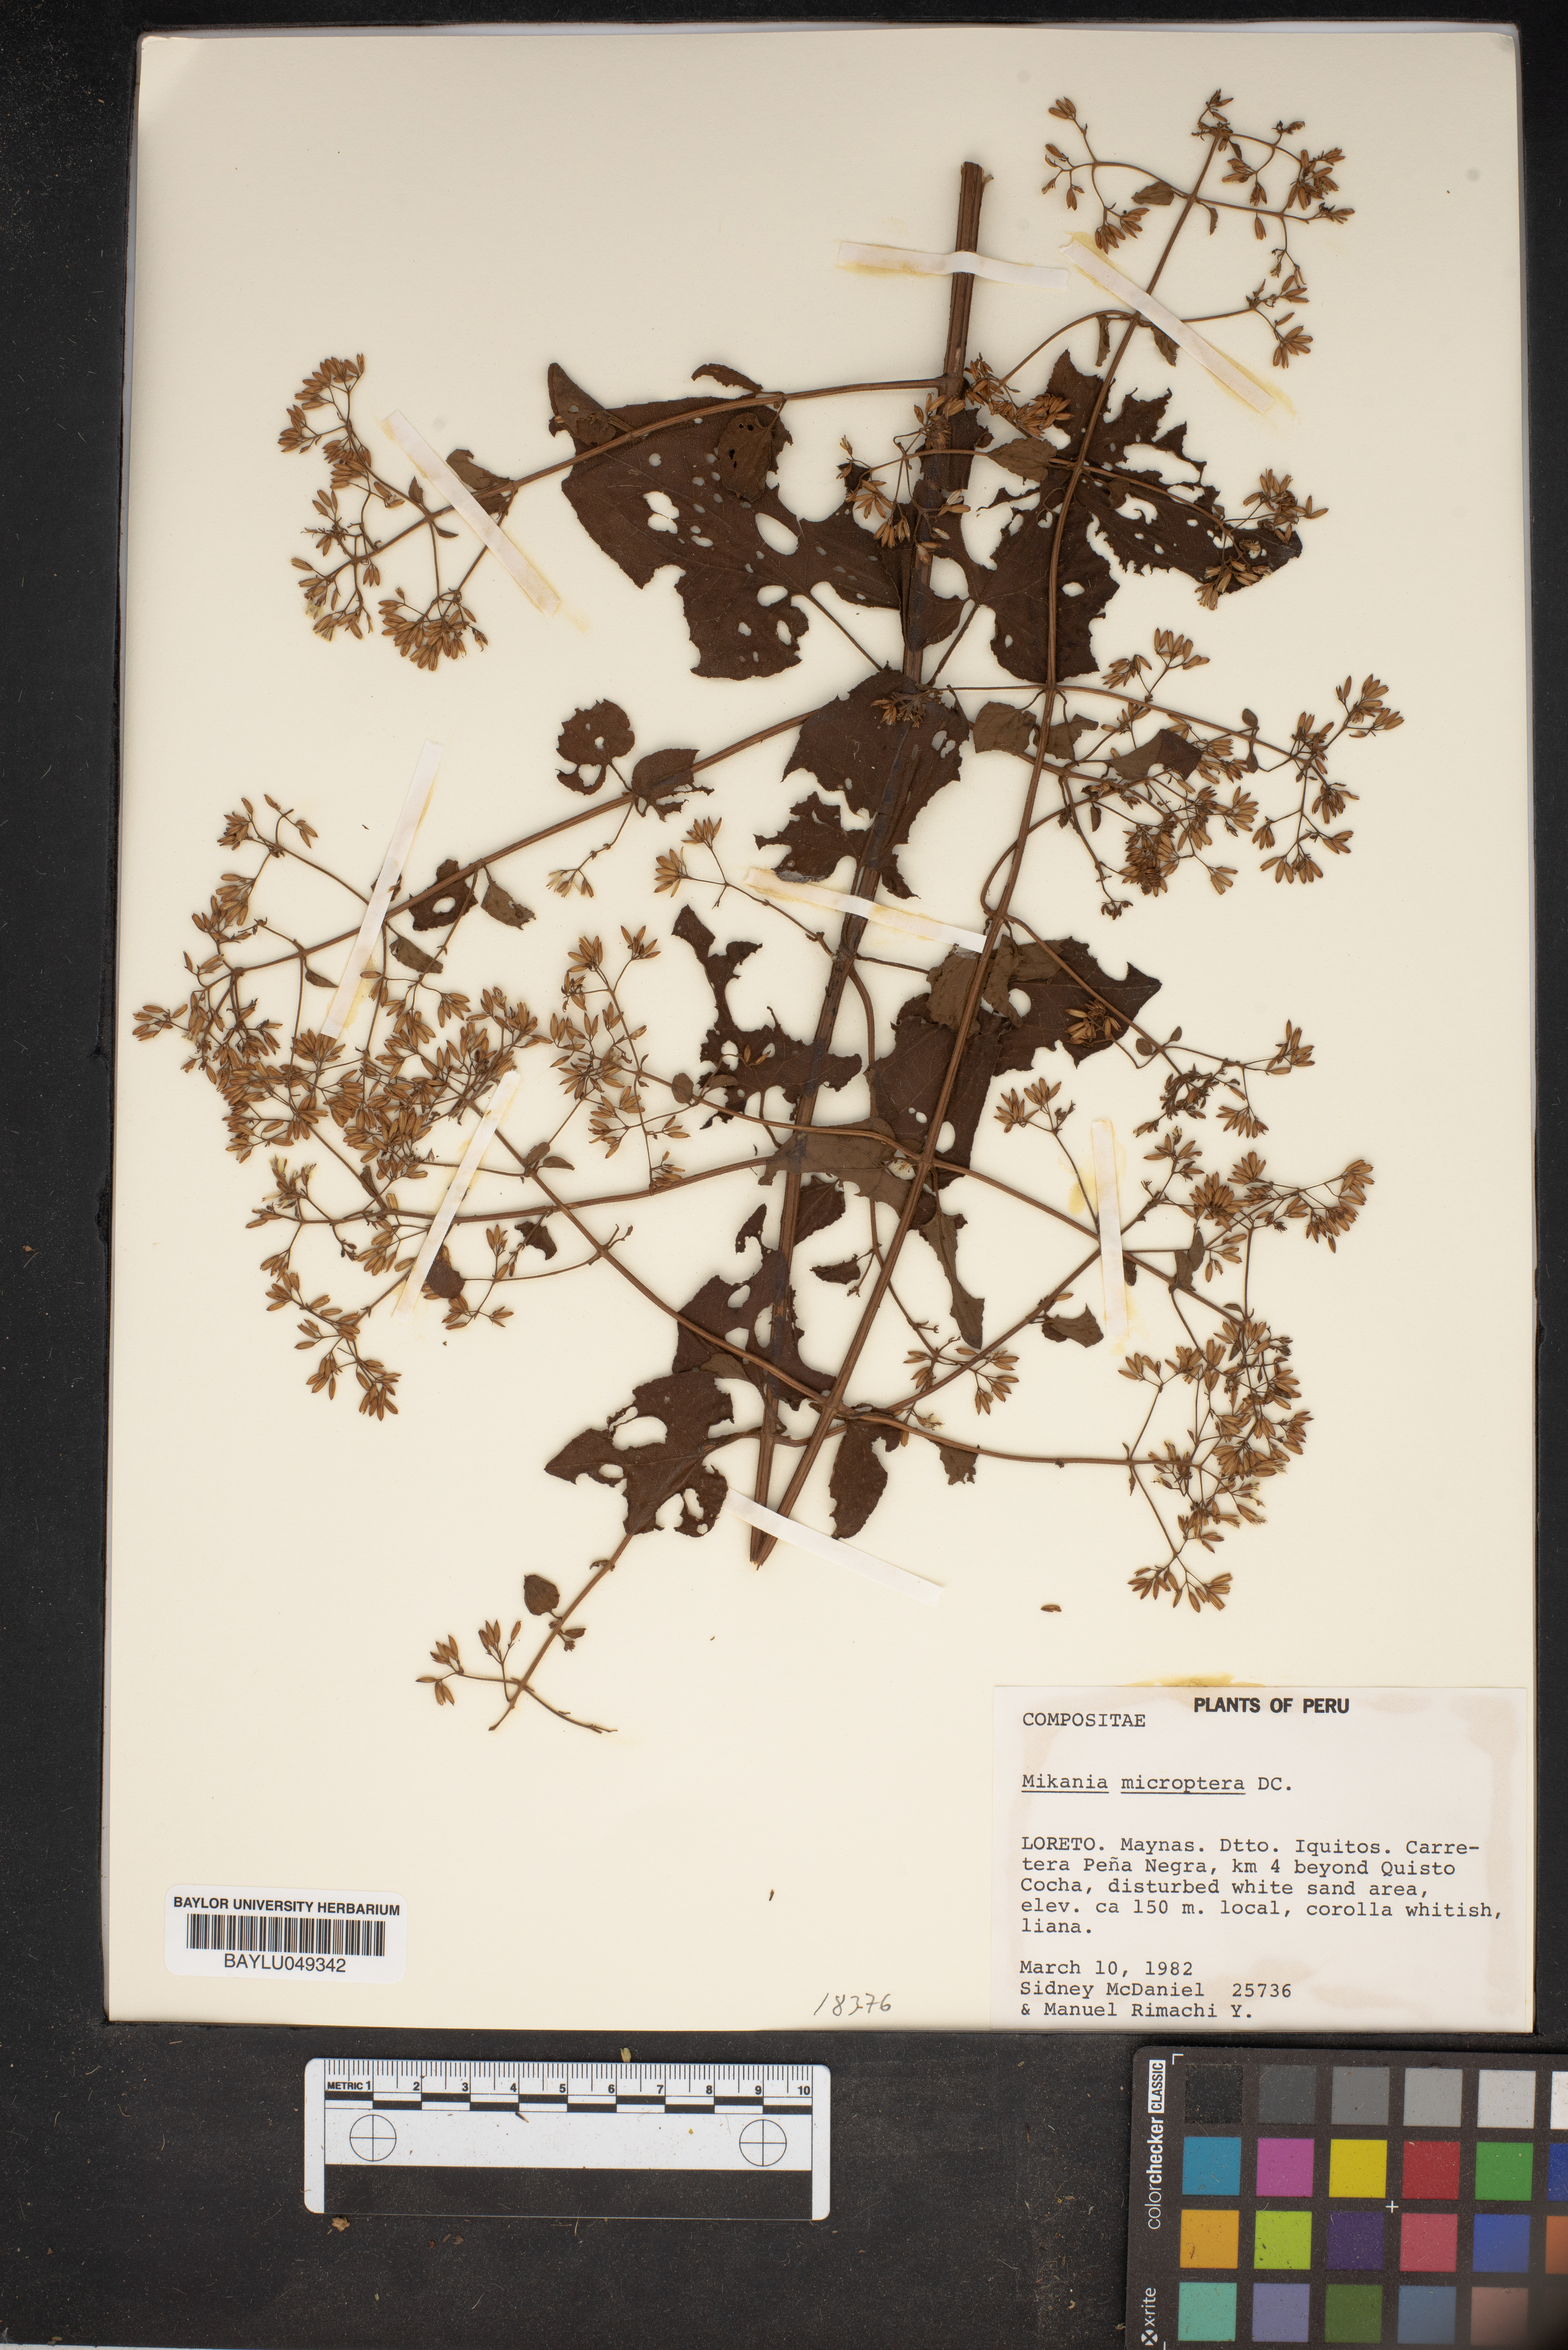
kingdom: Plantae
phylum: Tracheophyta
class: Magnoliopsida
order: Asterales
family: Asteraceae
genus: Mikania
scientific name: Mikania microptera
